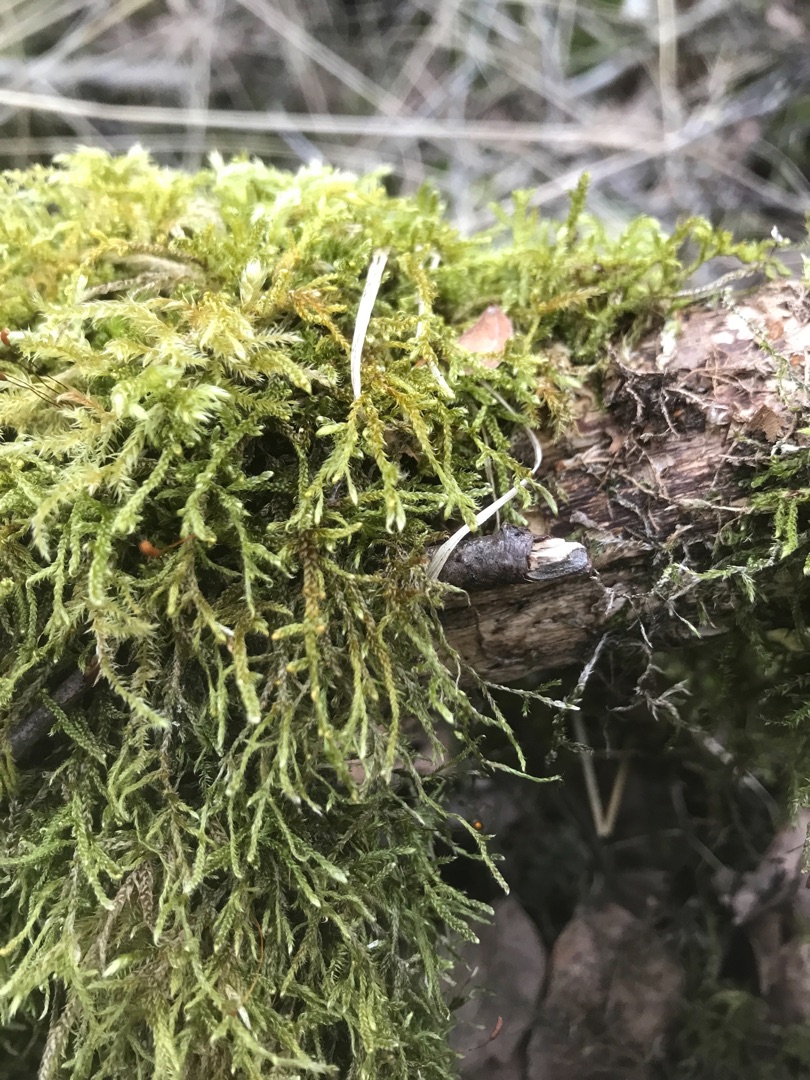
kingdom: Plantae
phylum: Bryophyta
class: Bryopsida
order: Hypnales
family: Hypnaceae
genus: Hypnum
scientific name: Hypnum cupressiforme
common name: Almindelig cypresmos
